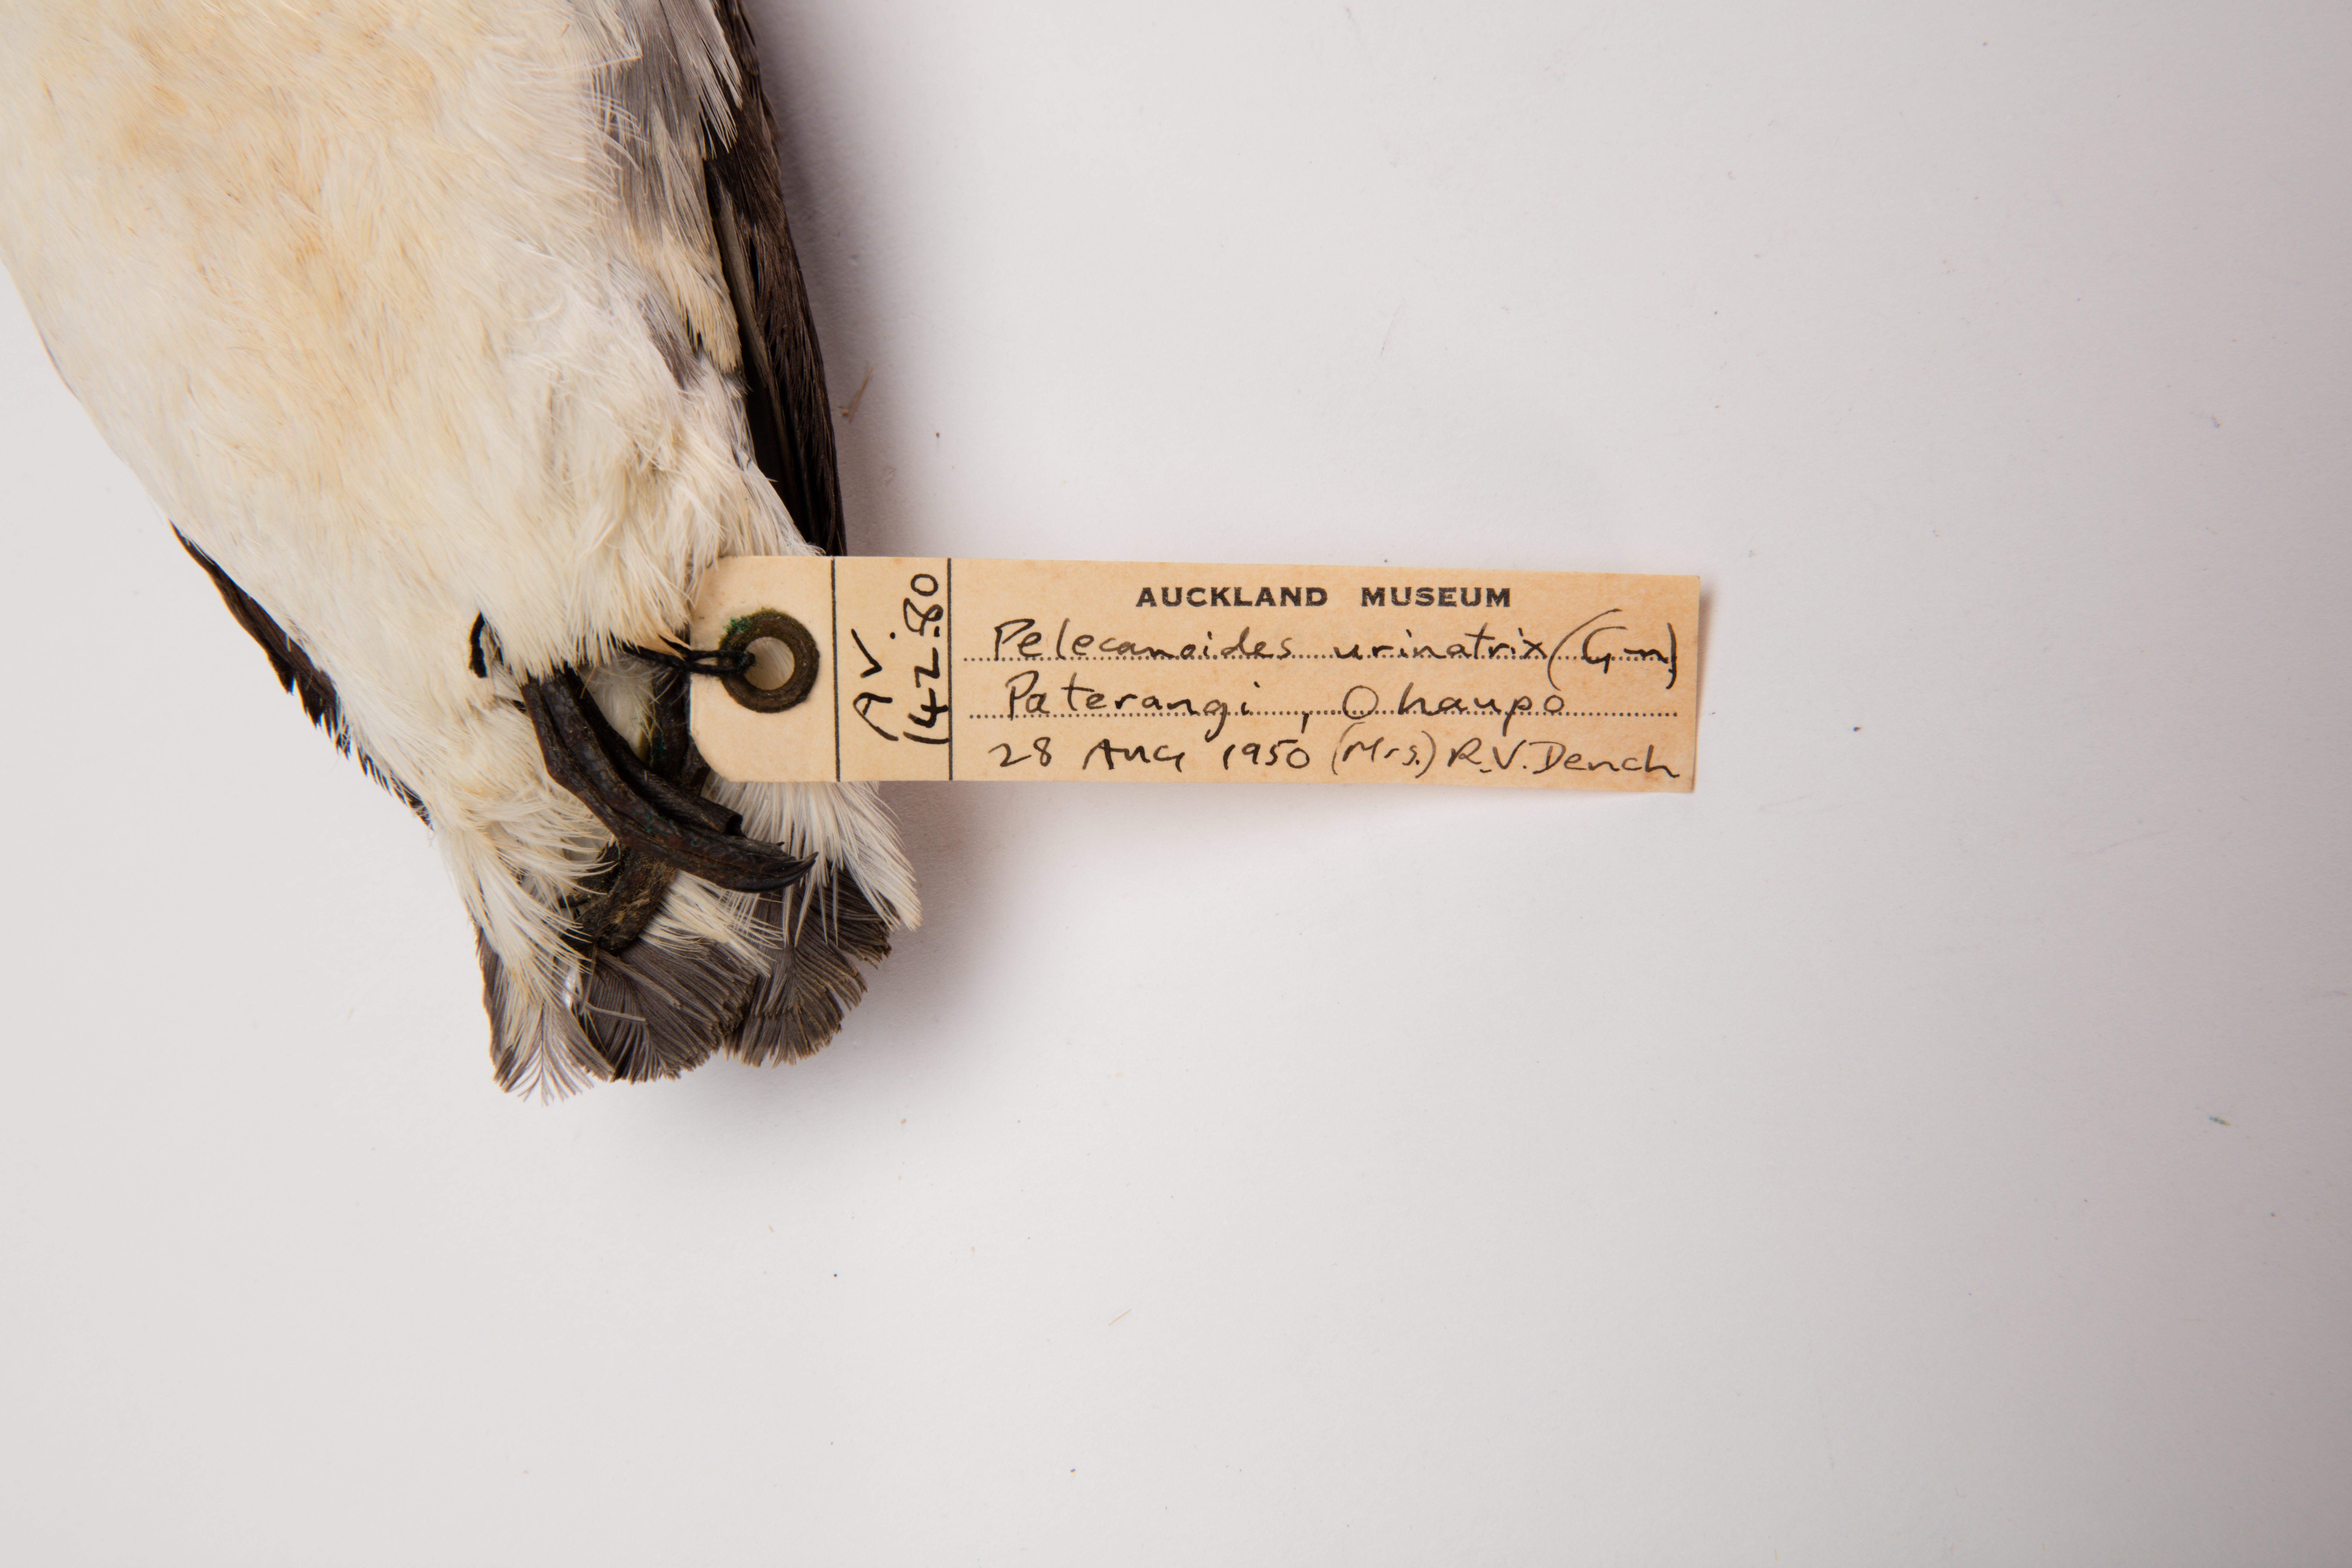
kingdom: Animalia
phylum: Chordata
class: Aves
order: Procellariiformes
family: Pelecanoididae
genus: Pelecanoides
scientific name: Pelecanoides urinatrix
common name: Common diving-petrel
